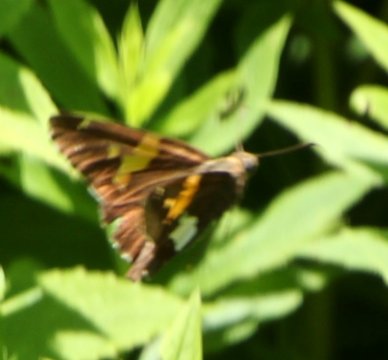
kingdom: Animalia
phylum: Arthropoda
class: Insecta
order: Lepidoptera
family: Hesperiidae
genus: Epargyreus
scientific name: Epargyreus clarus
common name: Silver-spotted Skipper
